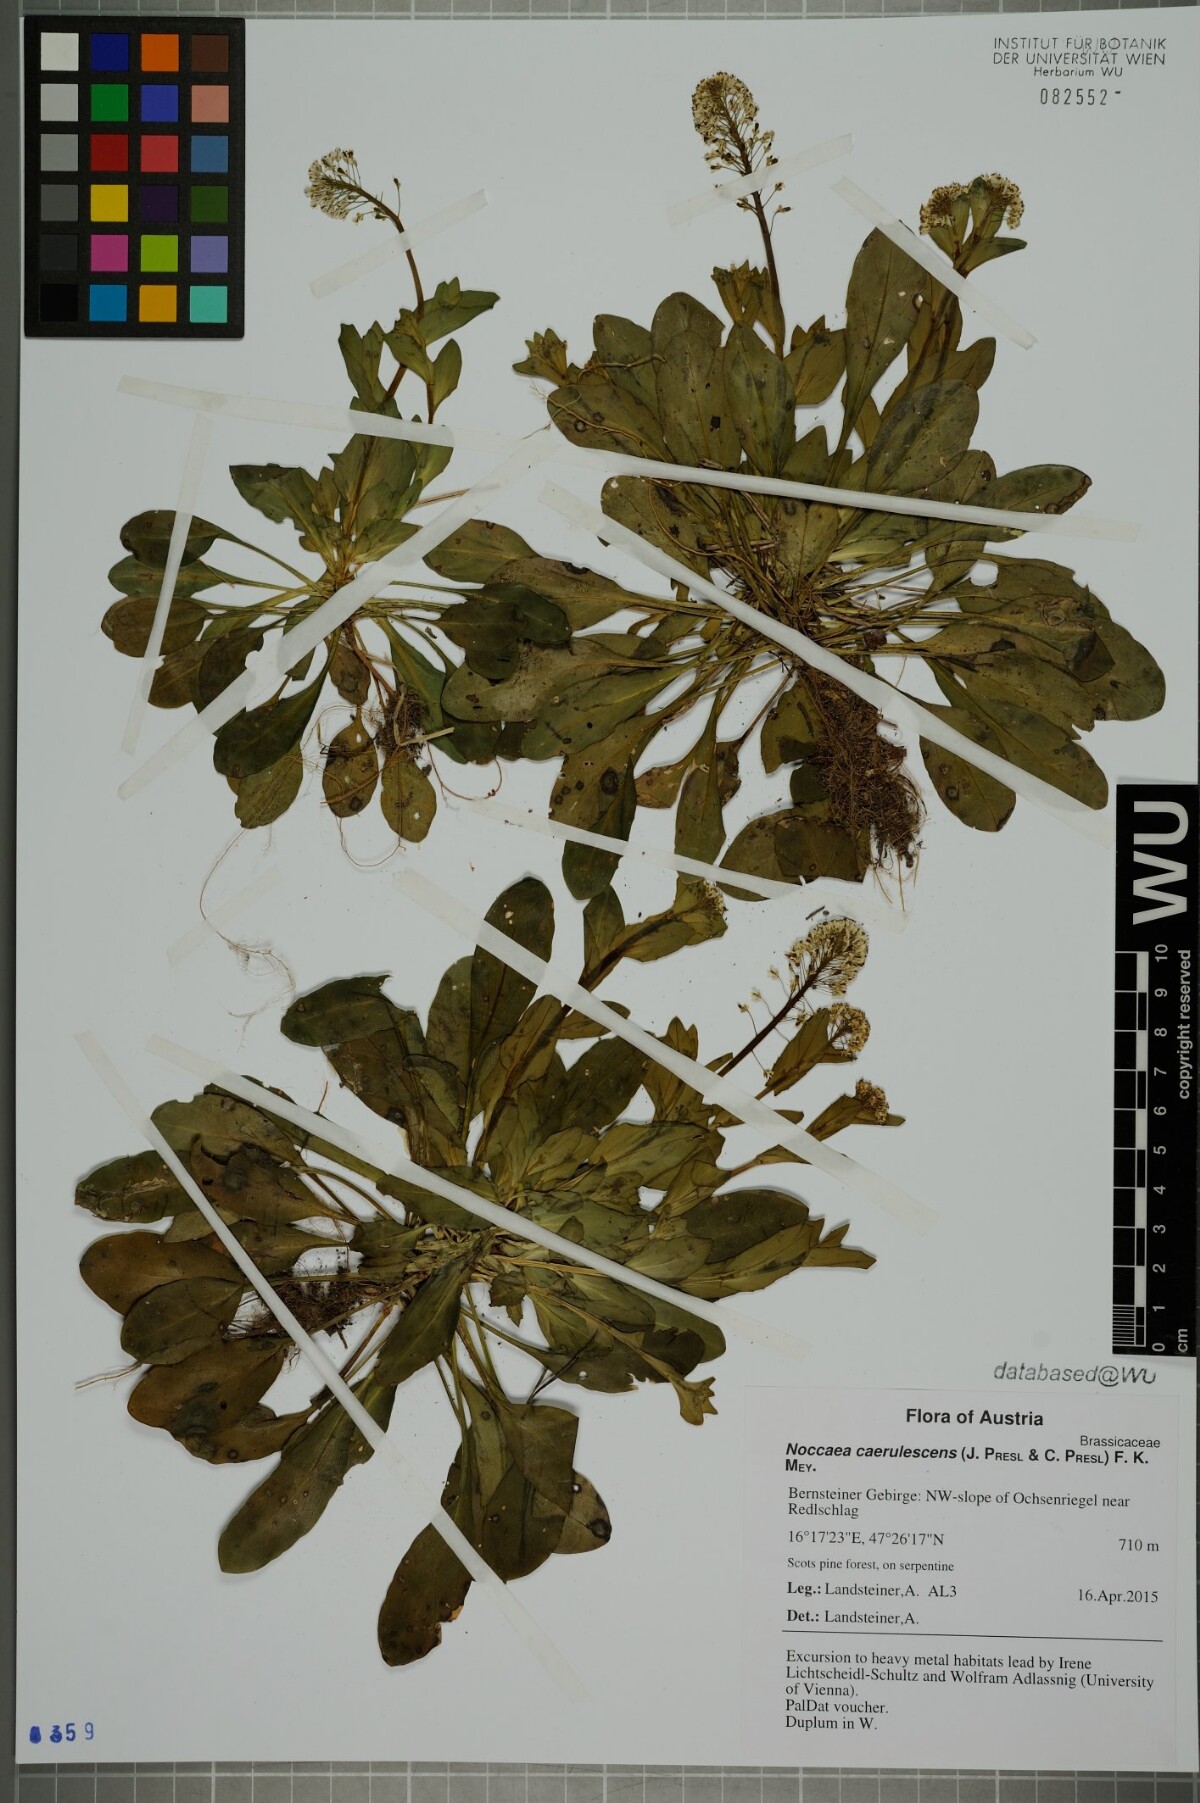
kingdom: Plantae
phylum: Tracheophyta
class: Magnoliopsida
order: Brassicales
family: Brassicaceae
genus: Noccaea
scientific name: Noccaea caerulescens
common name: Alpine pennycress
